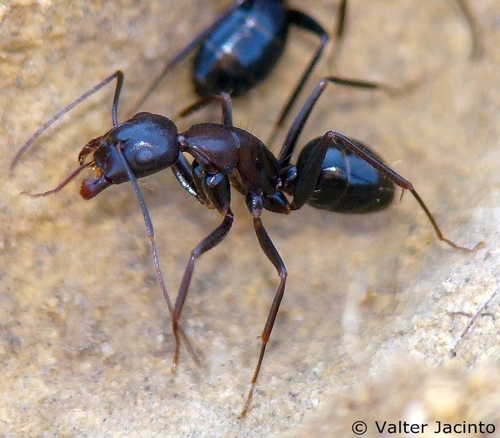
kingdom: Animalia
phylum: Arthropoda
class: Insecta
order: Hymenoptera
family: Formicidae
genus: Camponotus
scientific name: Camponotus sylvaticus
